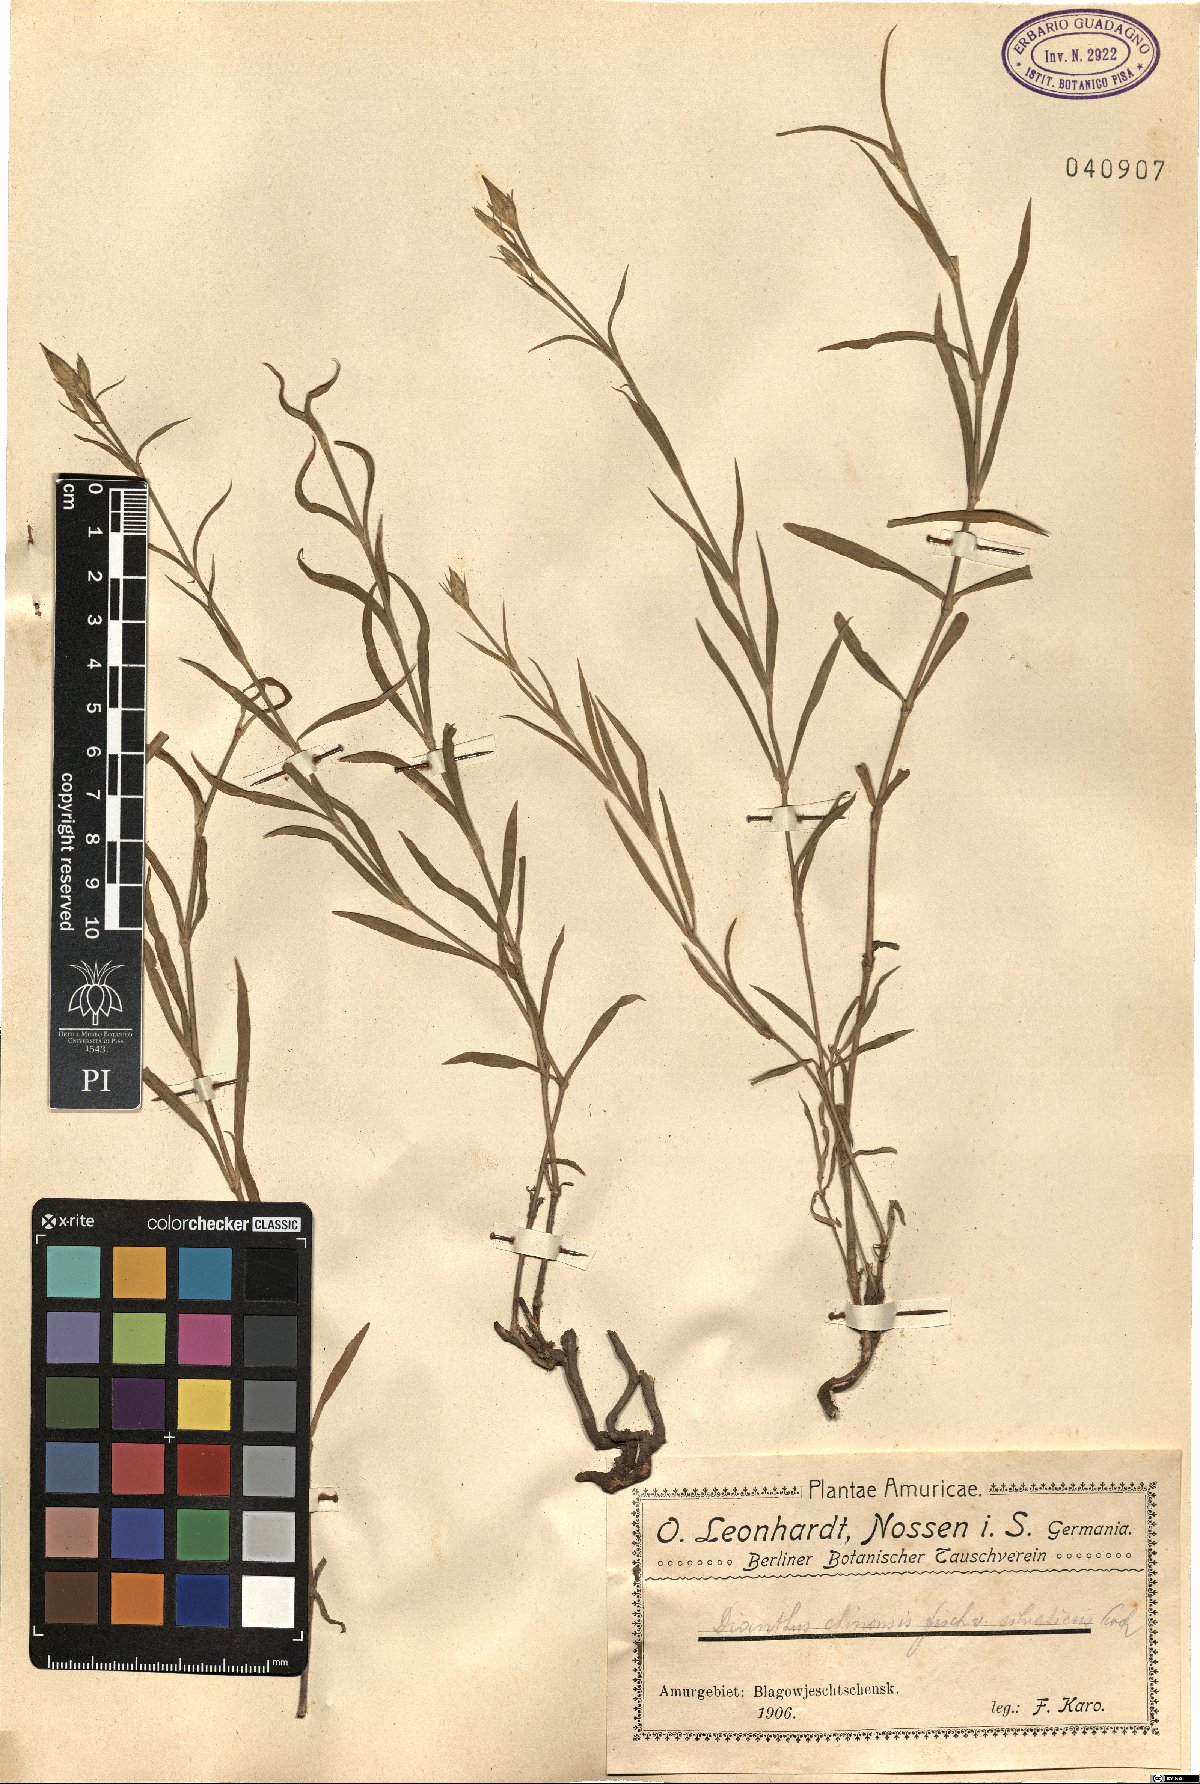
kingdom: Plantae
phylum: Tracheophyta
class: Magnoliopsida
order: Caryophyllales
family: Caryophyllaceae
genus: Dianthus
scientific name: Dianthus chinensis
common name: Rainbow pink
